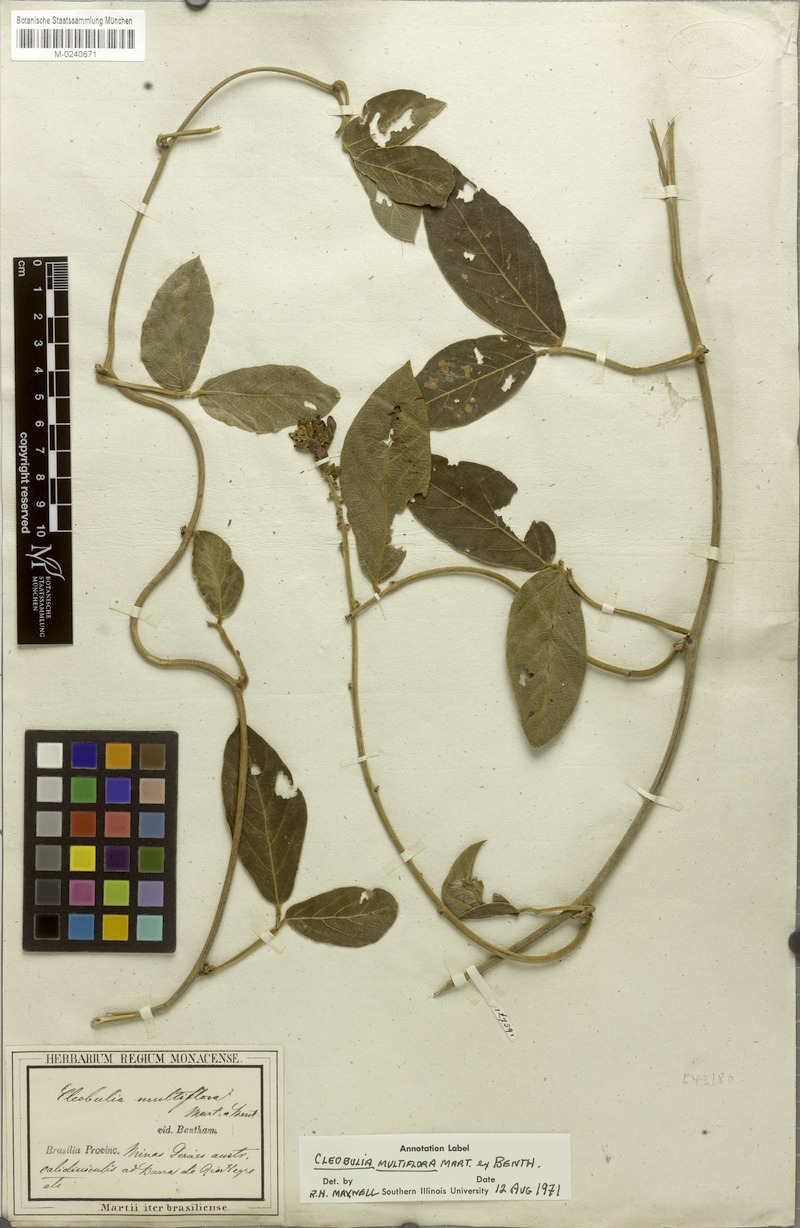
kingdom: Plantae
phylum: Tracheophyta
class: Magnoliopsida
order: Fabales
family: Fabaceae
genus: Cleobulia
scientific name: Cleobulia coccinea
